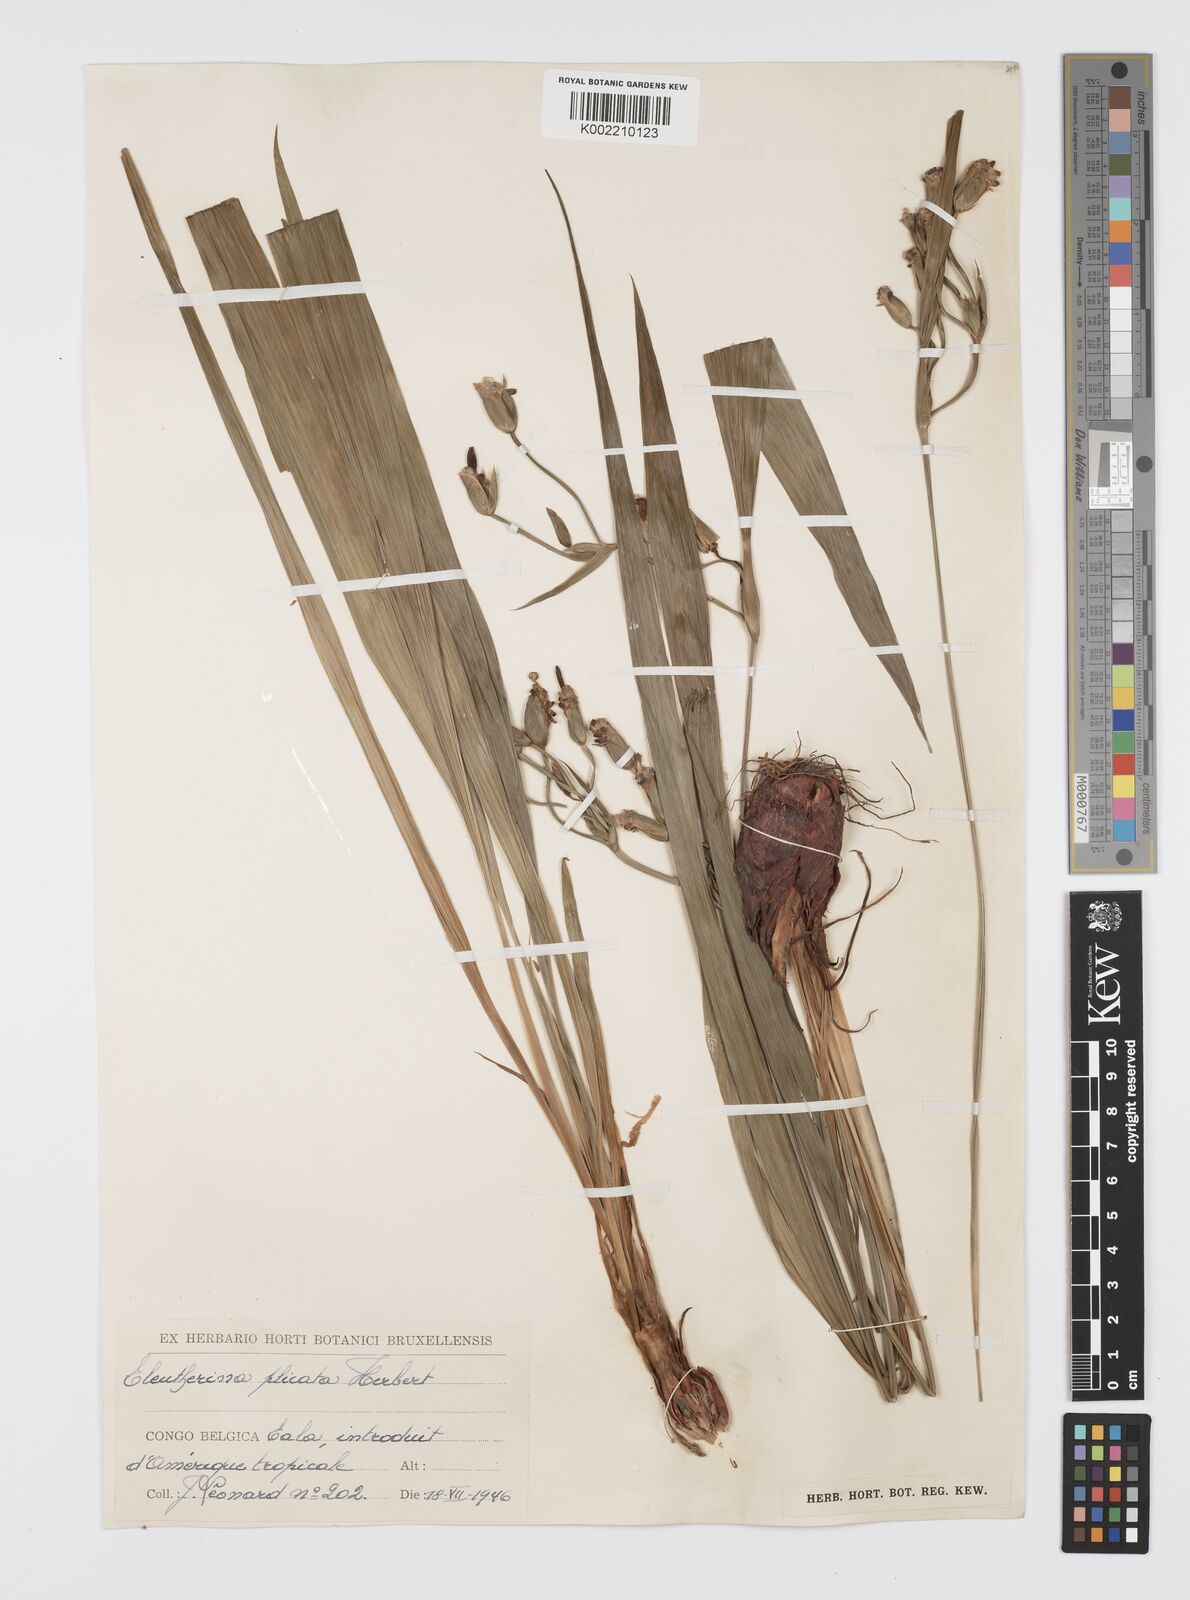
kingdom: Plantae
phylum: Tracheophyta
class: Liliopsida
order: Asparagales
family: Iridaceae
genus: Eleutherine
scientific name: Eleutherine bulbosa
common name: Lagrimas de la virgen
